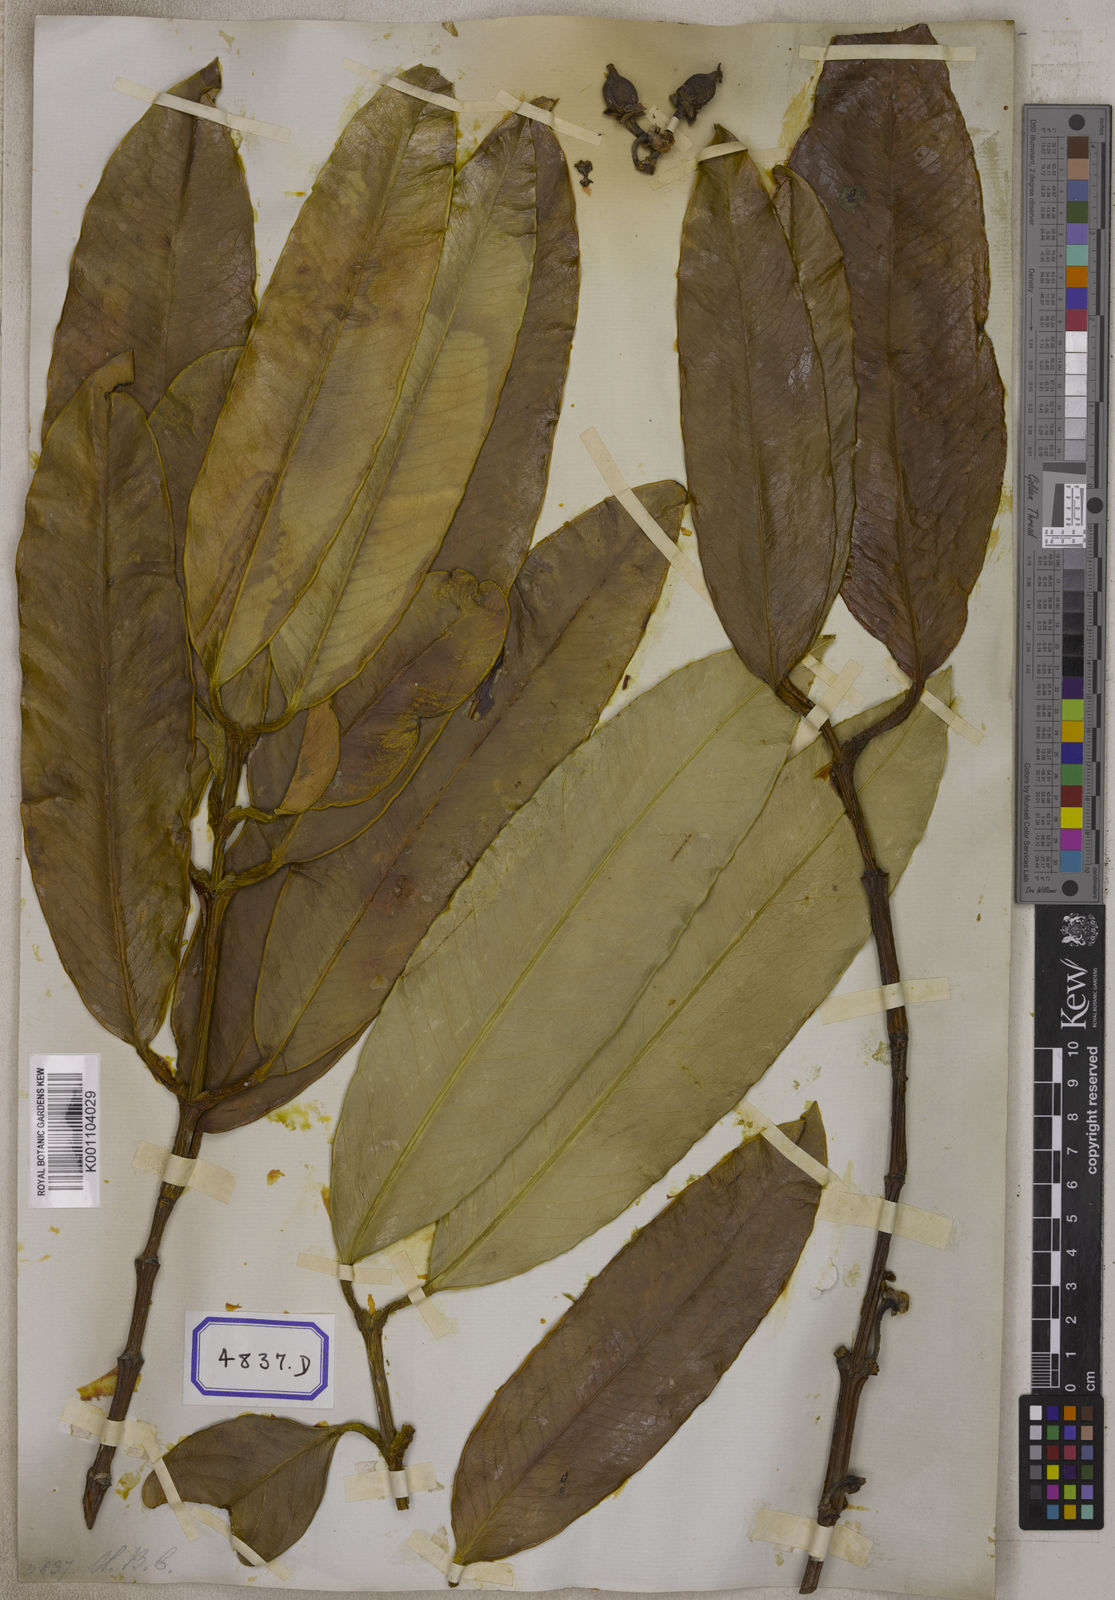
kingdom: Plantae
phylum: Tracheophyta
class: Magnoliopsida
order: Malpighiales
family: Clusiaceae
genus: Garcinia
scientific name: Garcinia xanthochymus
